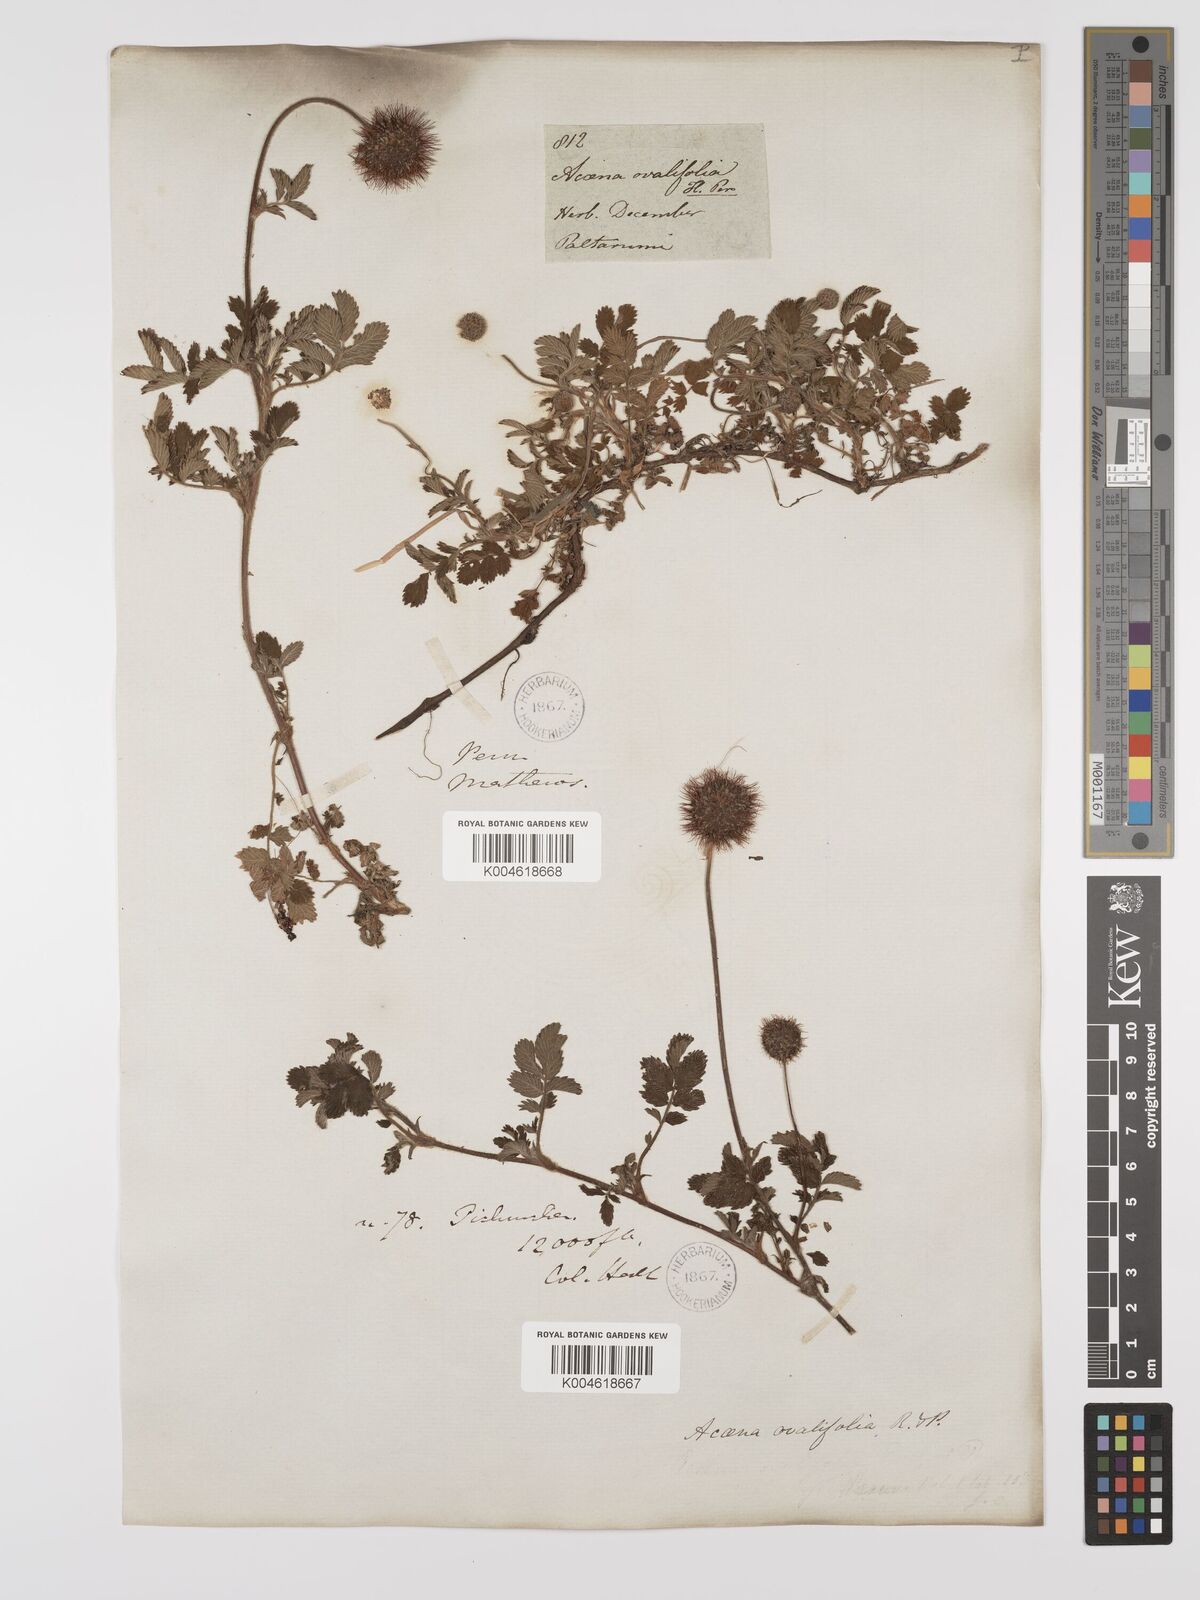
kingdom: Plantae
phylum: Tracheophyta
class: Magnoliopsida
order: Rosales
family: Rosaceae
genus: Acaena
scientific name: Acaena ovalifolia
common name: Two-spined acaena
